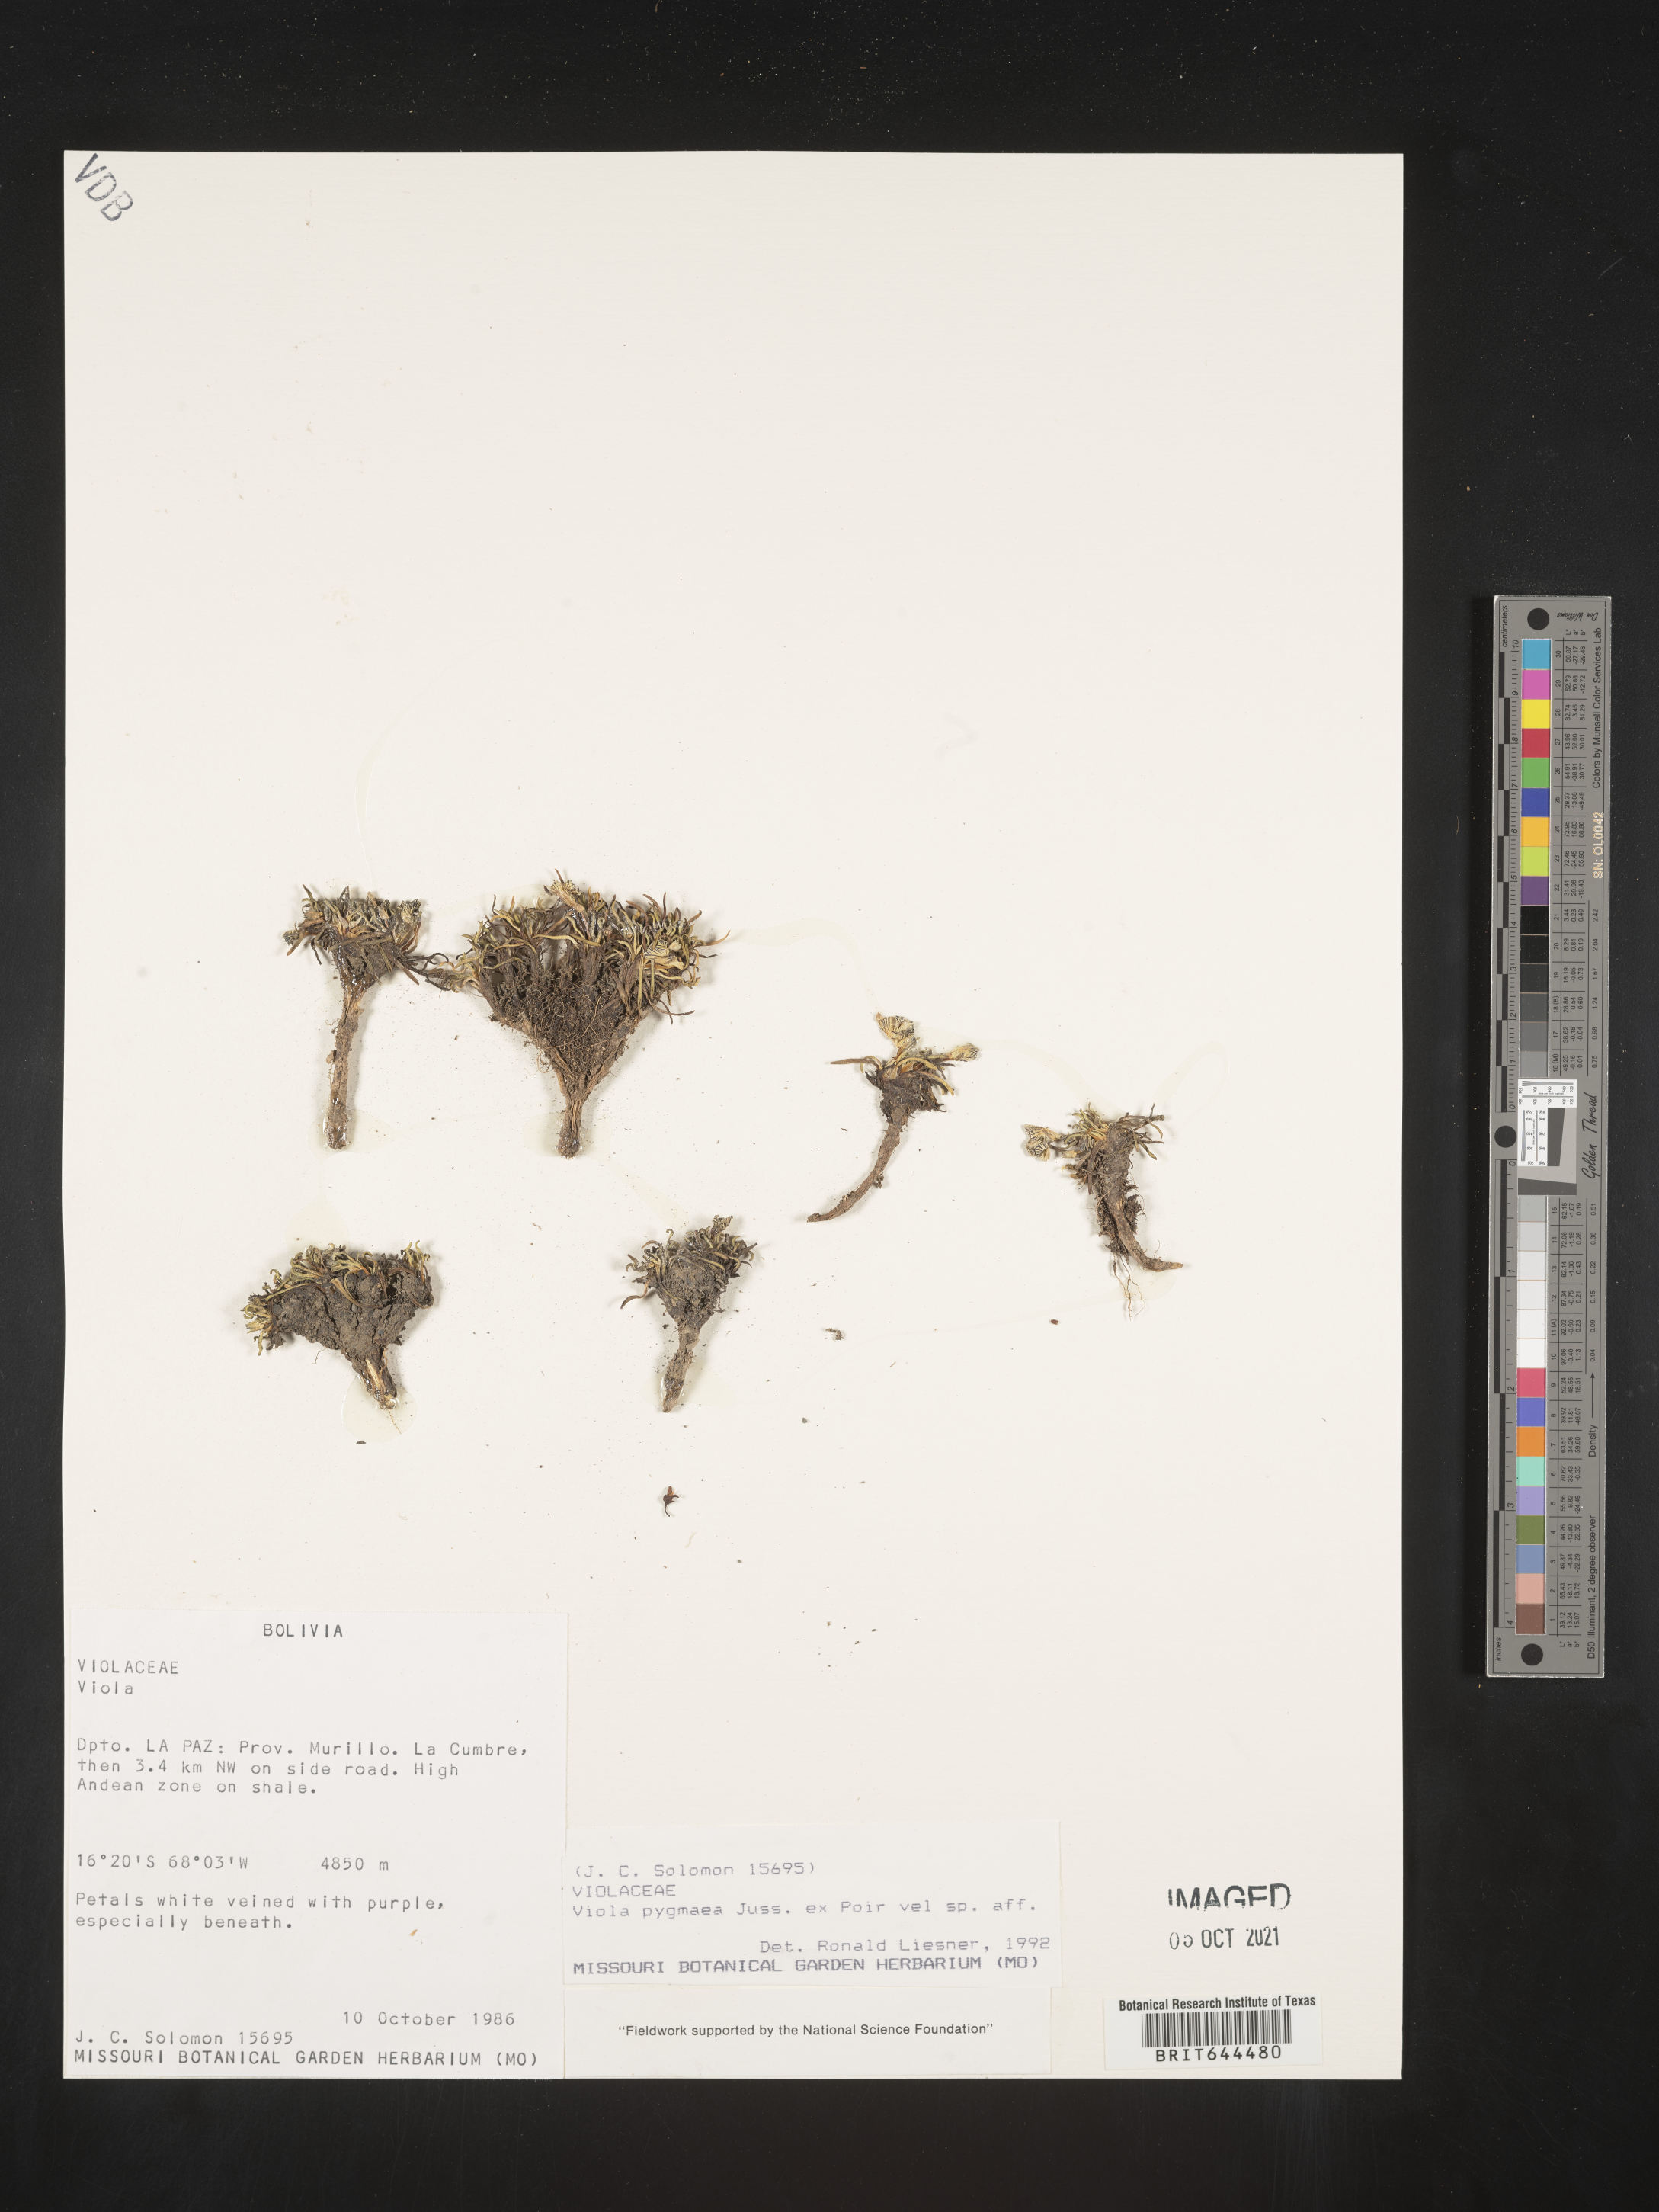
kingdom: Plantae
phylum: Tracheophyta
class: Magnoliopsida
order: Malpighiales
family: Violaceae
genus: Viola
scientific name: Viola
